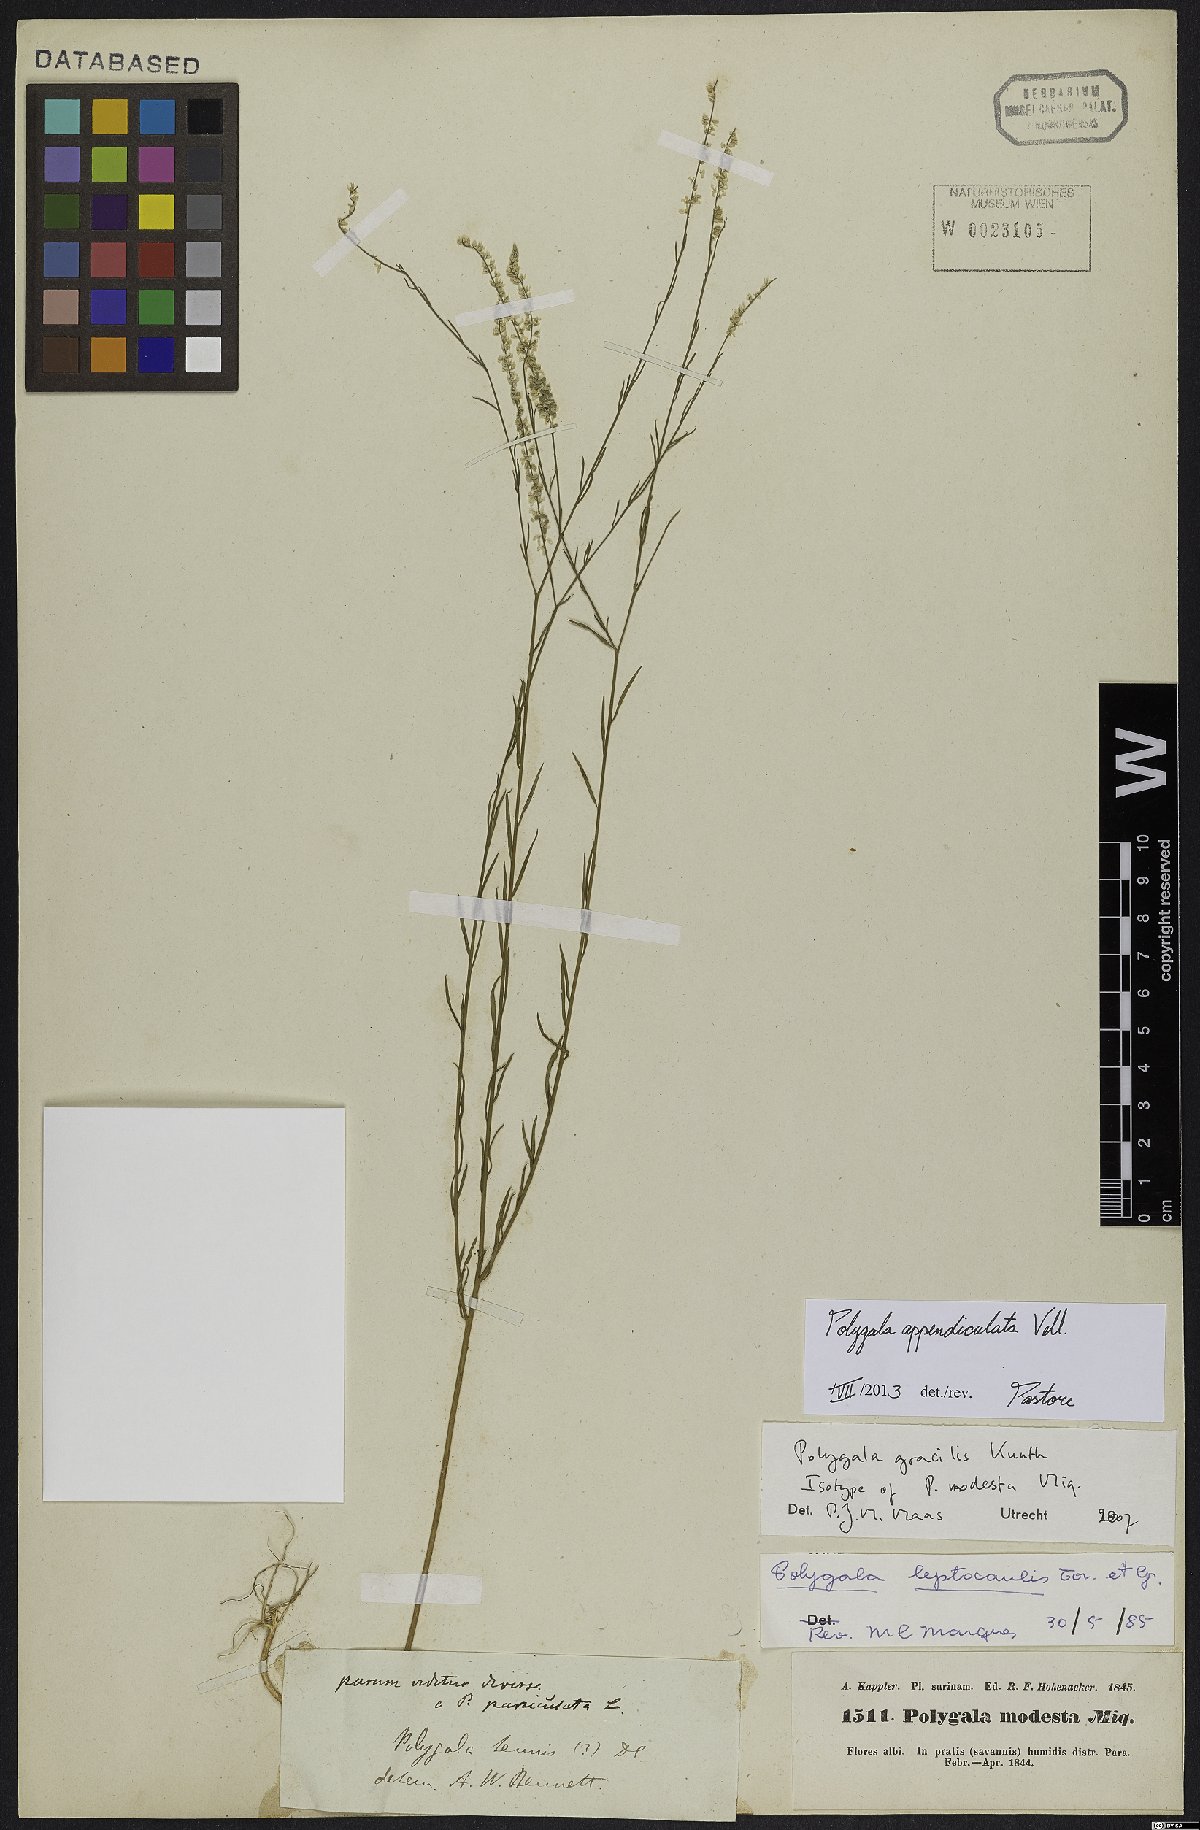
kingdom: Plantae
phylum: Tracheophyta
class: Magnoliopsida
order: Fabales
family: Polygalaceae
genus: Polygala
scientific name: Polygala tenella
